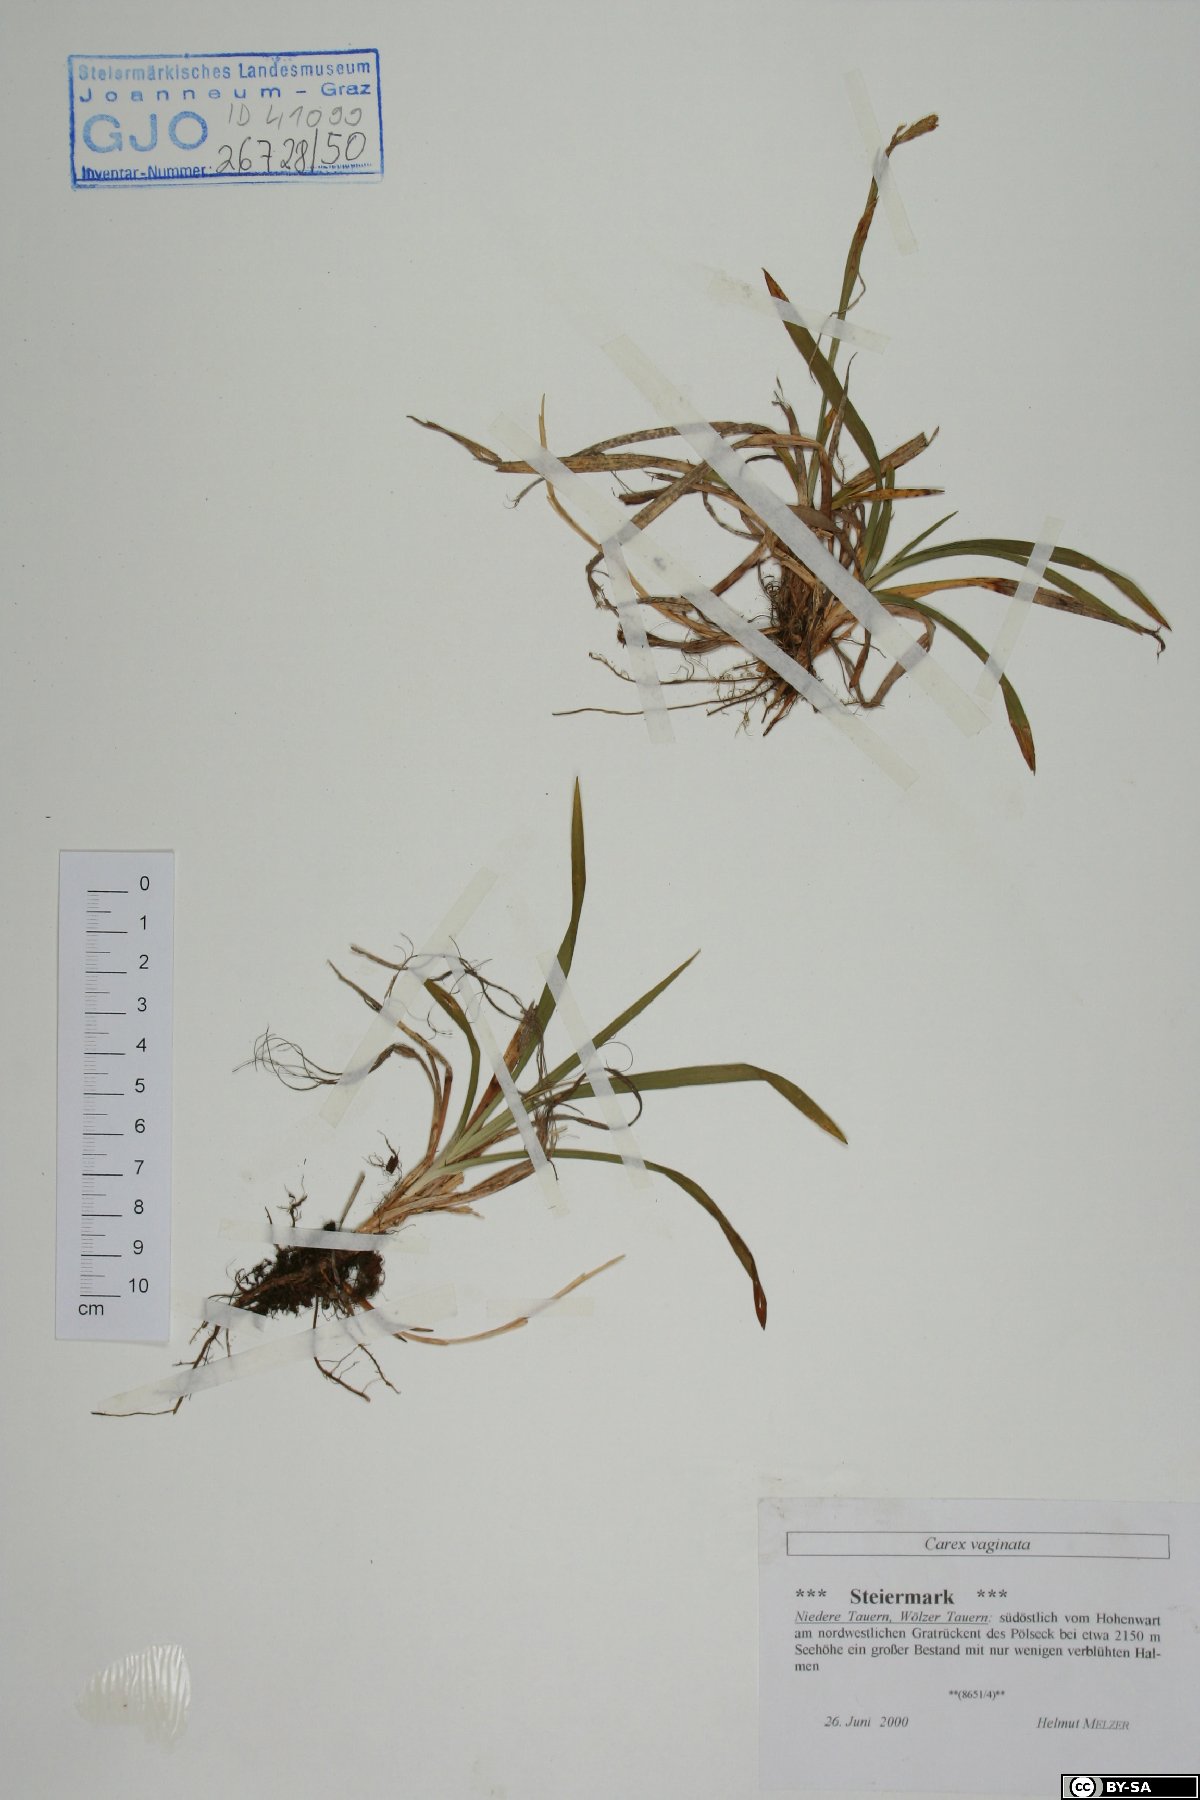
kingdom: Plantae
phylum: Tracheophyta
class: Liliopsida
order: Poales
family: Cyperaceae
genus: Carex
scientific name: Carex vaginata
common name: Sheathed sedge
